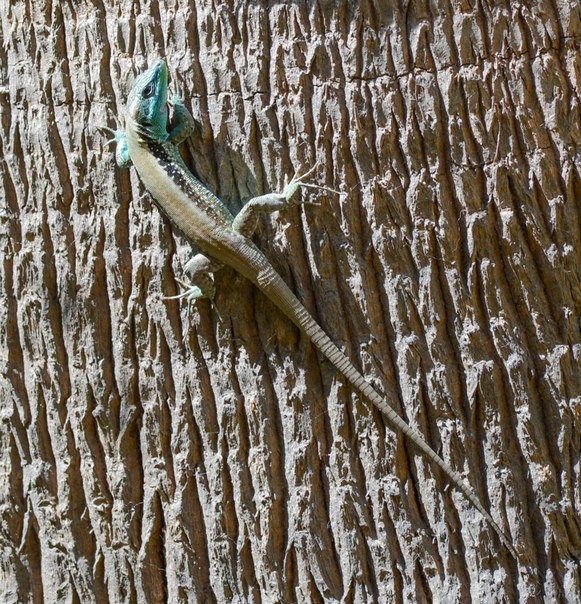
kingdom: Animalia
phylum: Chordata
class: Squamata
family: Lacertidae
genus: Phoenicolacerta
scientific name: Phoenicolacerta laevis
